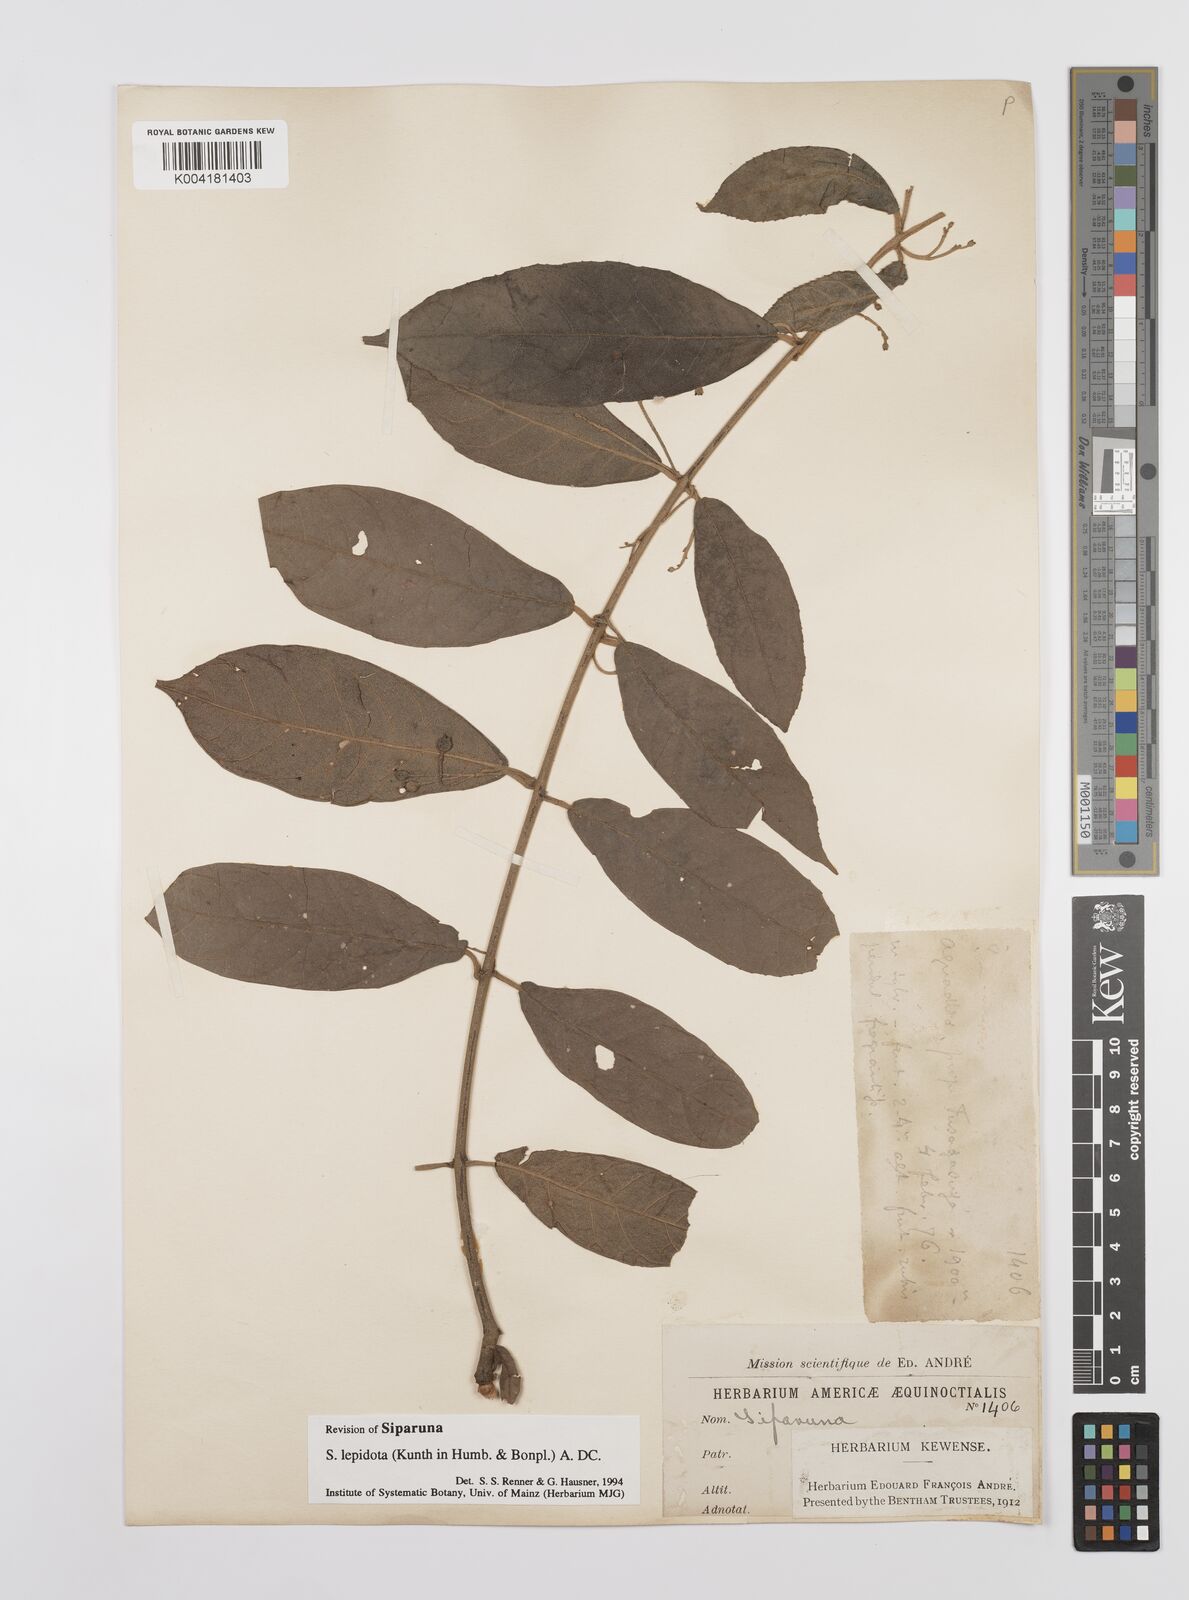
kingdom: Plantae
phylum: Tracheophyta
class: Magnoliopsida
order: Laurales
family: Siparunaceae
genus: Siparuna
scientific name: Siparuna lepidota
